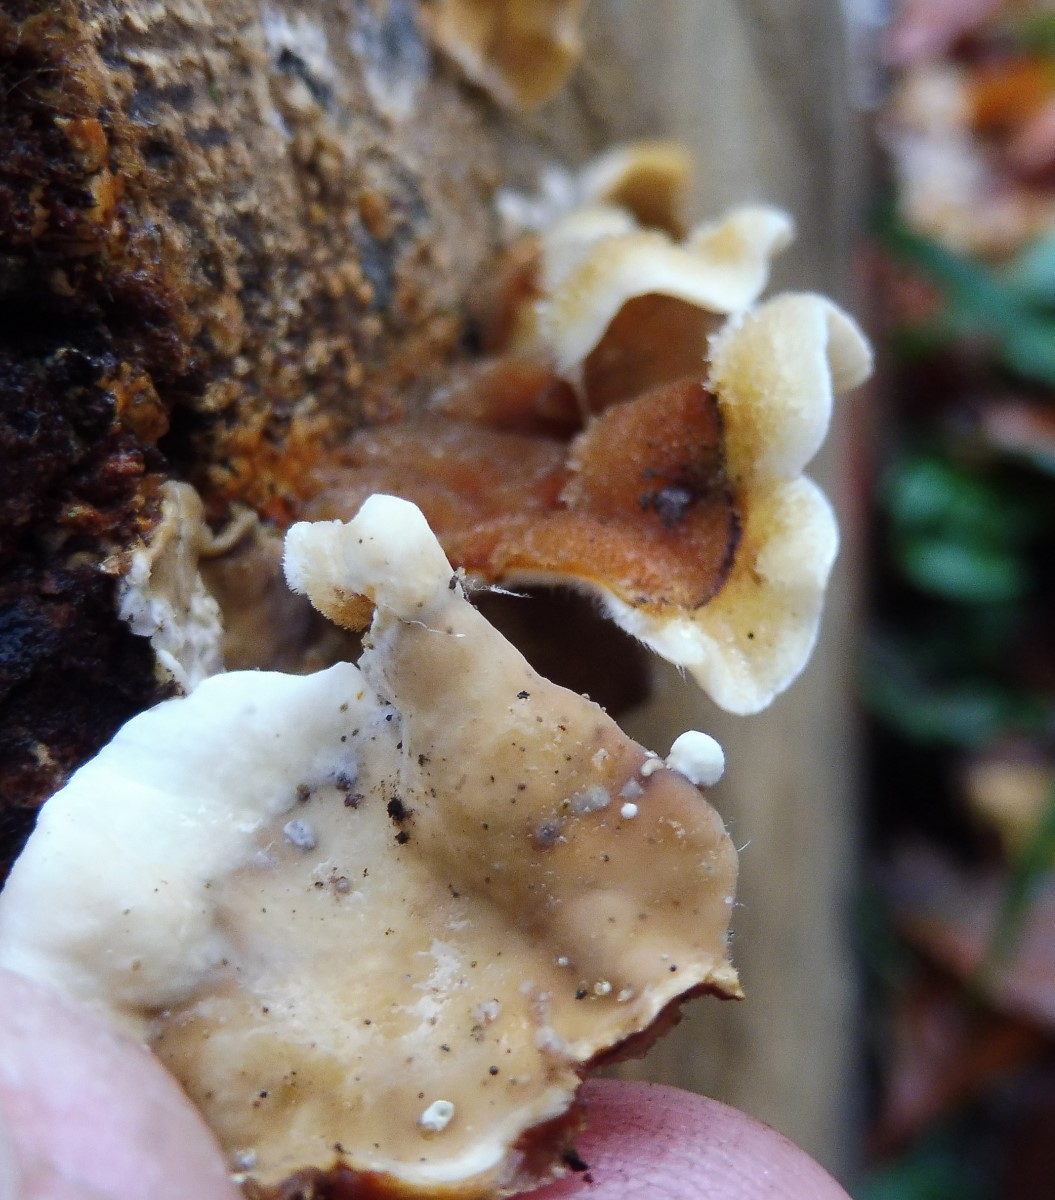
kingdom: Fungi
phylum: Basidiomycota
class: Agaricomycetes
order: Russulales
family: Stereaceae
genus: Stereum
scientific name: Stereum hirsutum
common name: håret lædersvamp
